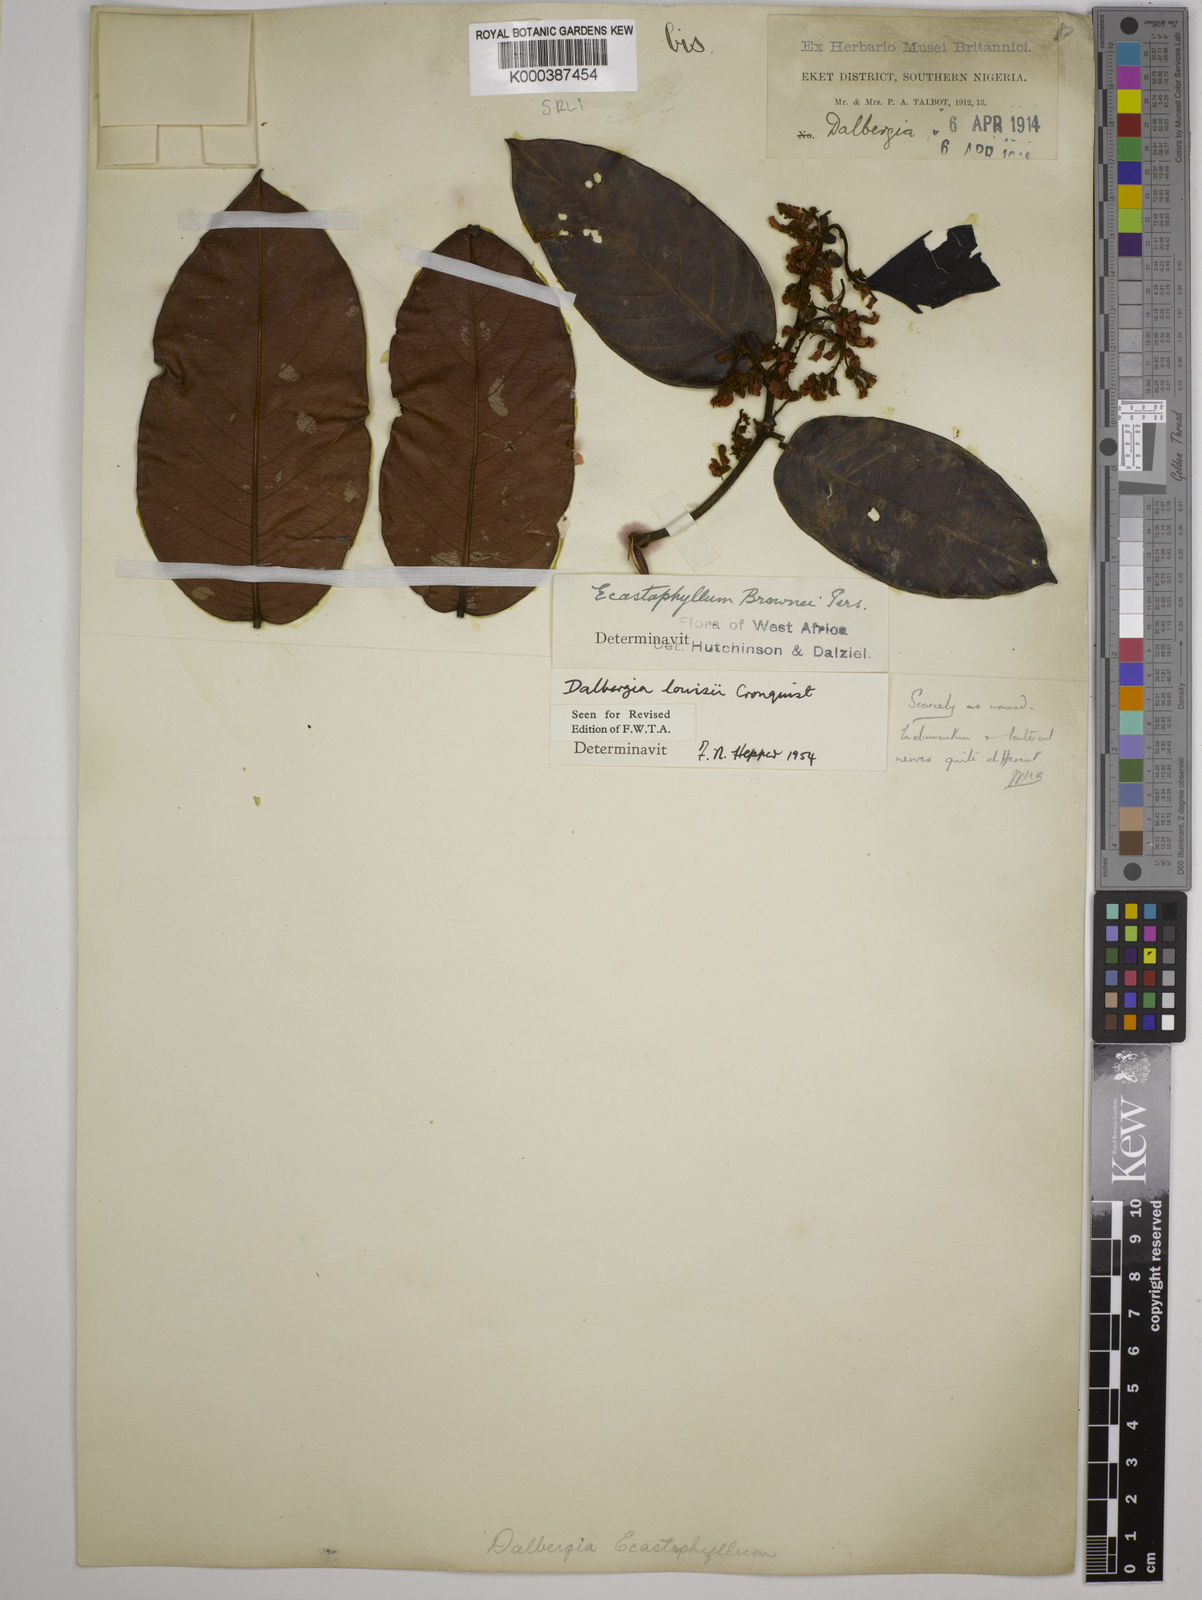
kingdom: Plantae
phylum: Tracheophyta
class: Magnoliopsida
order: Fabales
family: Fabaceae
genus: Dalbergia
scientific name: Dalbergia louisii
